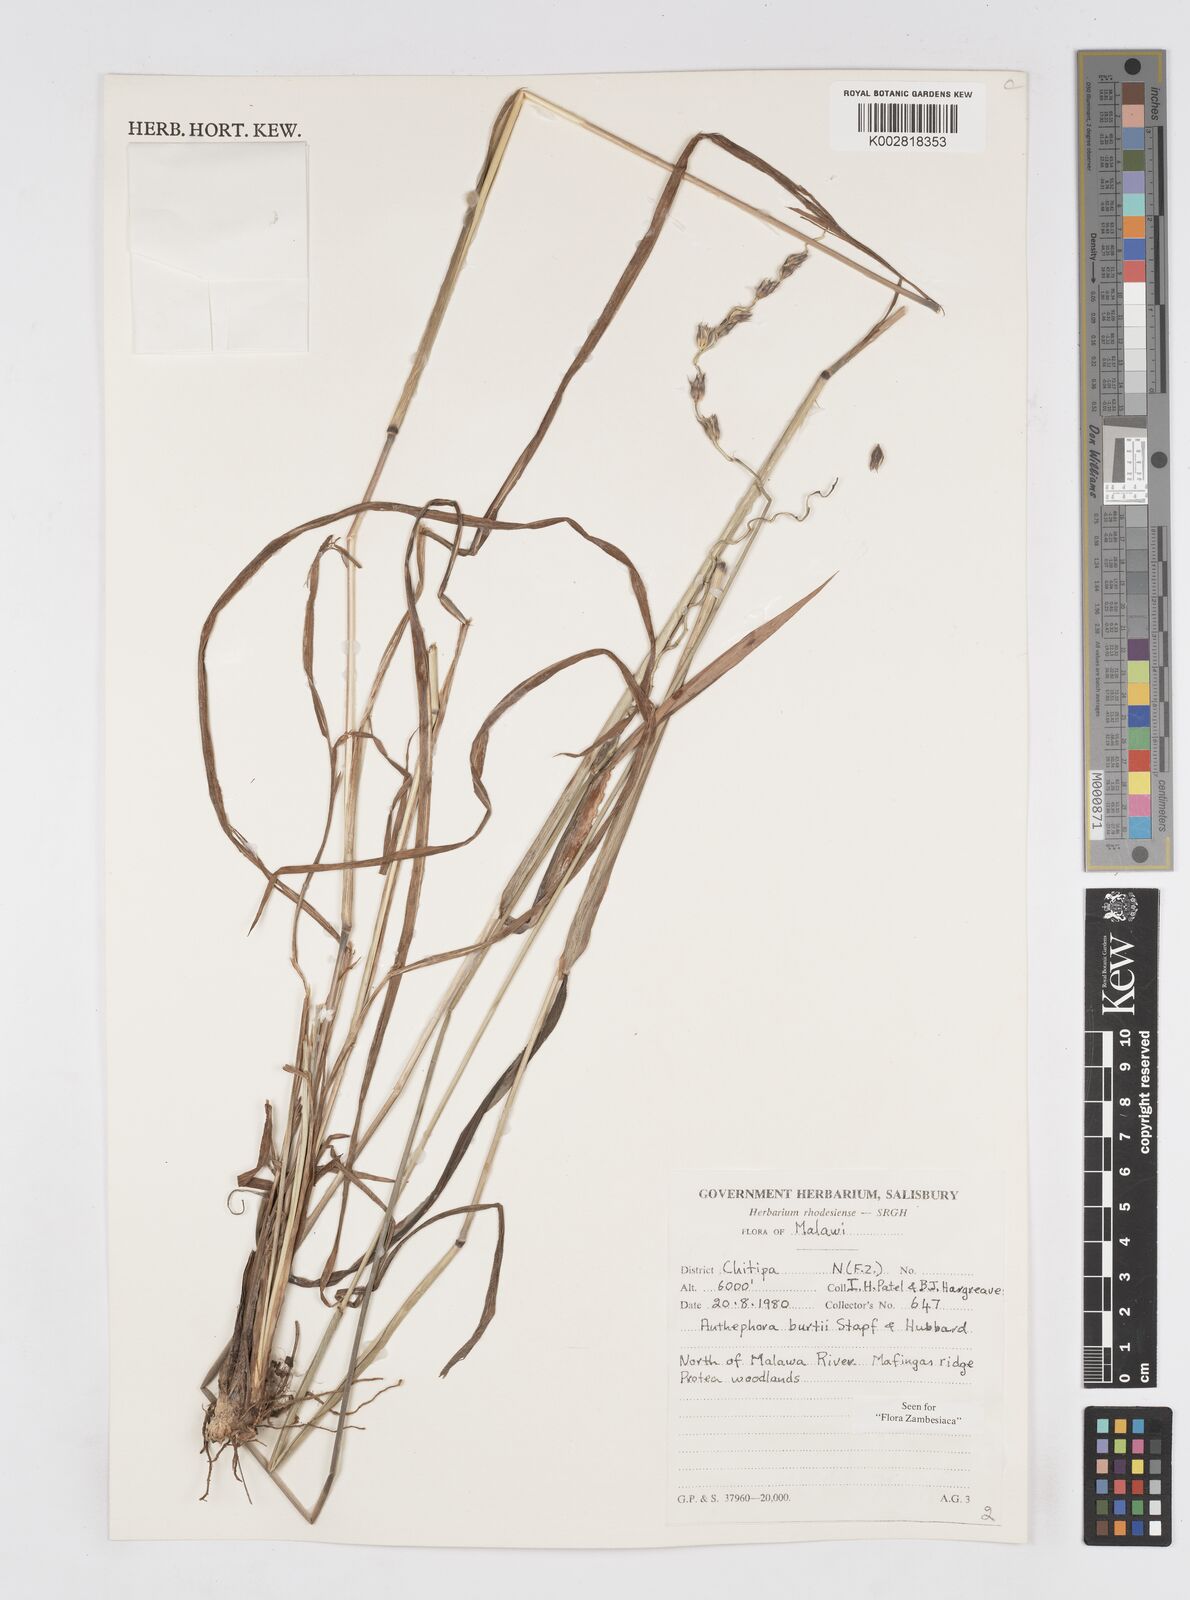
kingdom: Plantae
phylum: Tracheophyta
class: Liliopsida
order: Poales
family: Poaceae
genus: Anthephora
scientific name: Anthephora elongata
